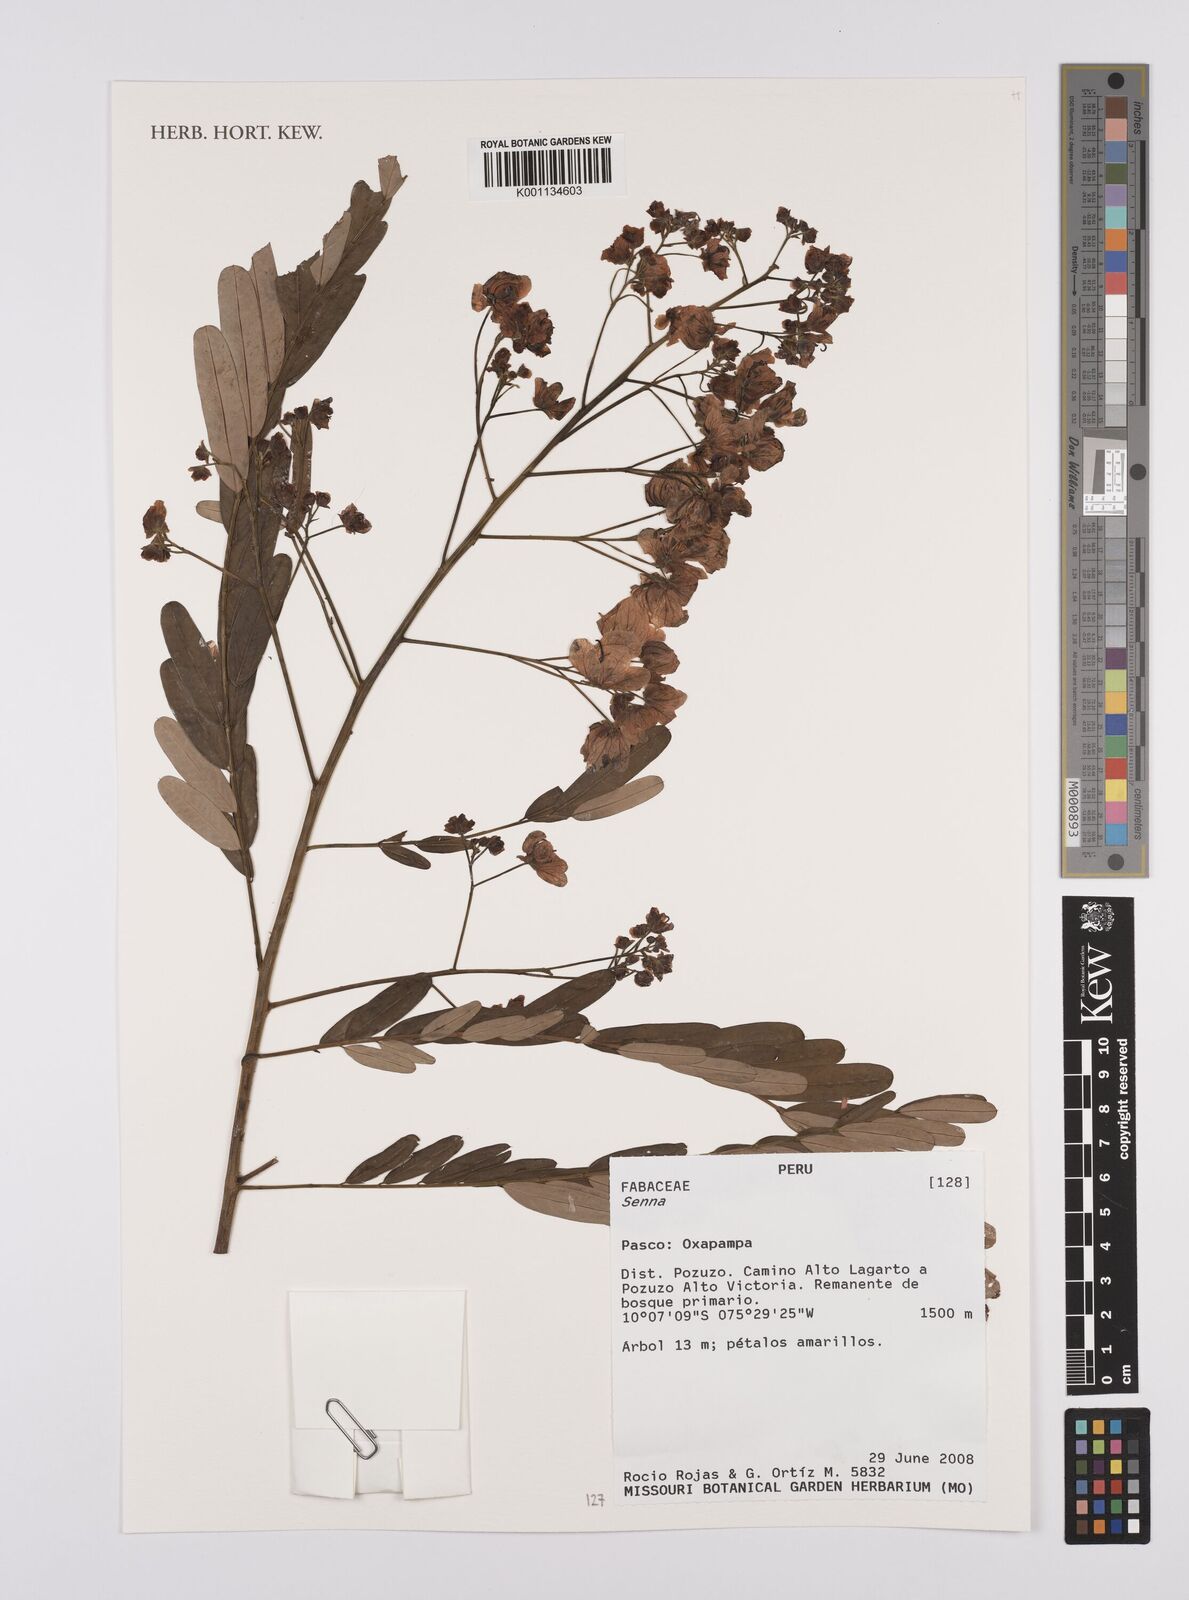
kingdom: Plantae
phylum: Tracheophyta
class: Magnoliopsida
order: Fabales
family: Fabaceae
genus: Senna
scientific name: Senna
